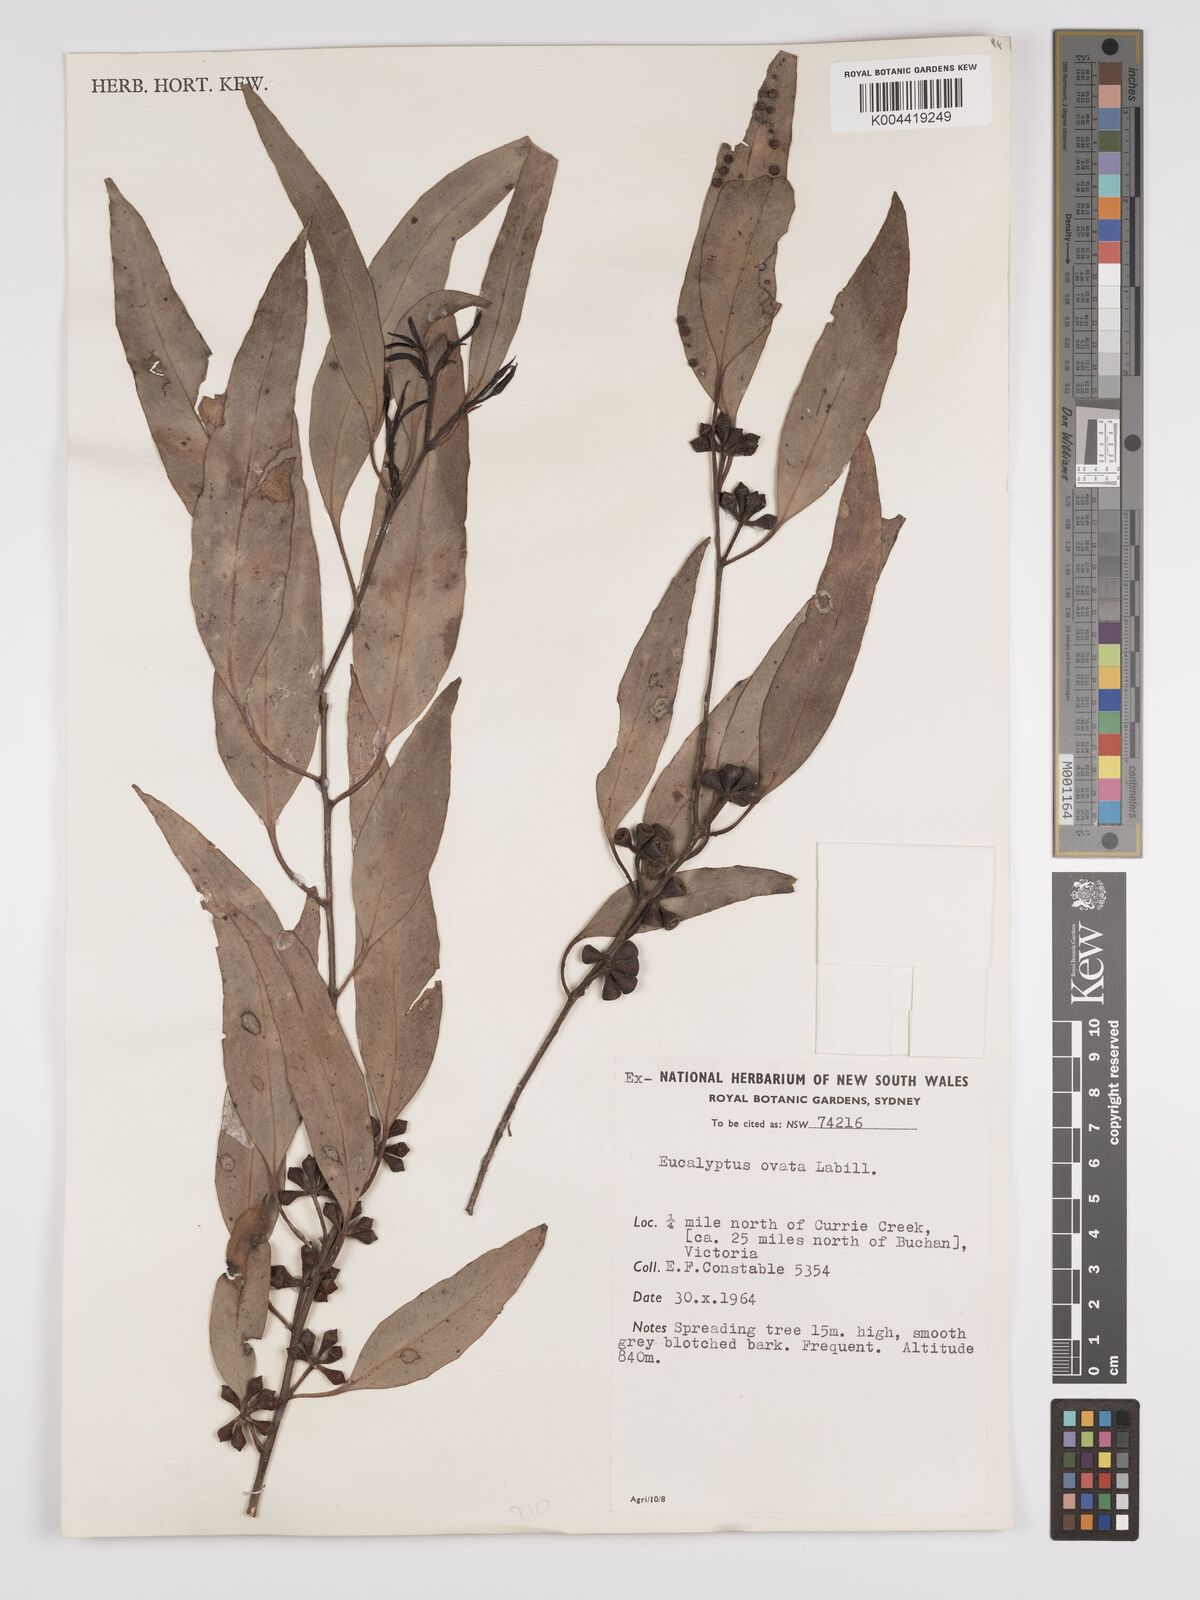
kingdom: Plantae
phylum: Tracheophyta
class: Magnoliopsida
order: Myrtales
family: Myrtaceae
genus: Eucalyptus
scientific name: Eucalyptus ovata
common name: Black-gum
